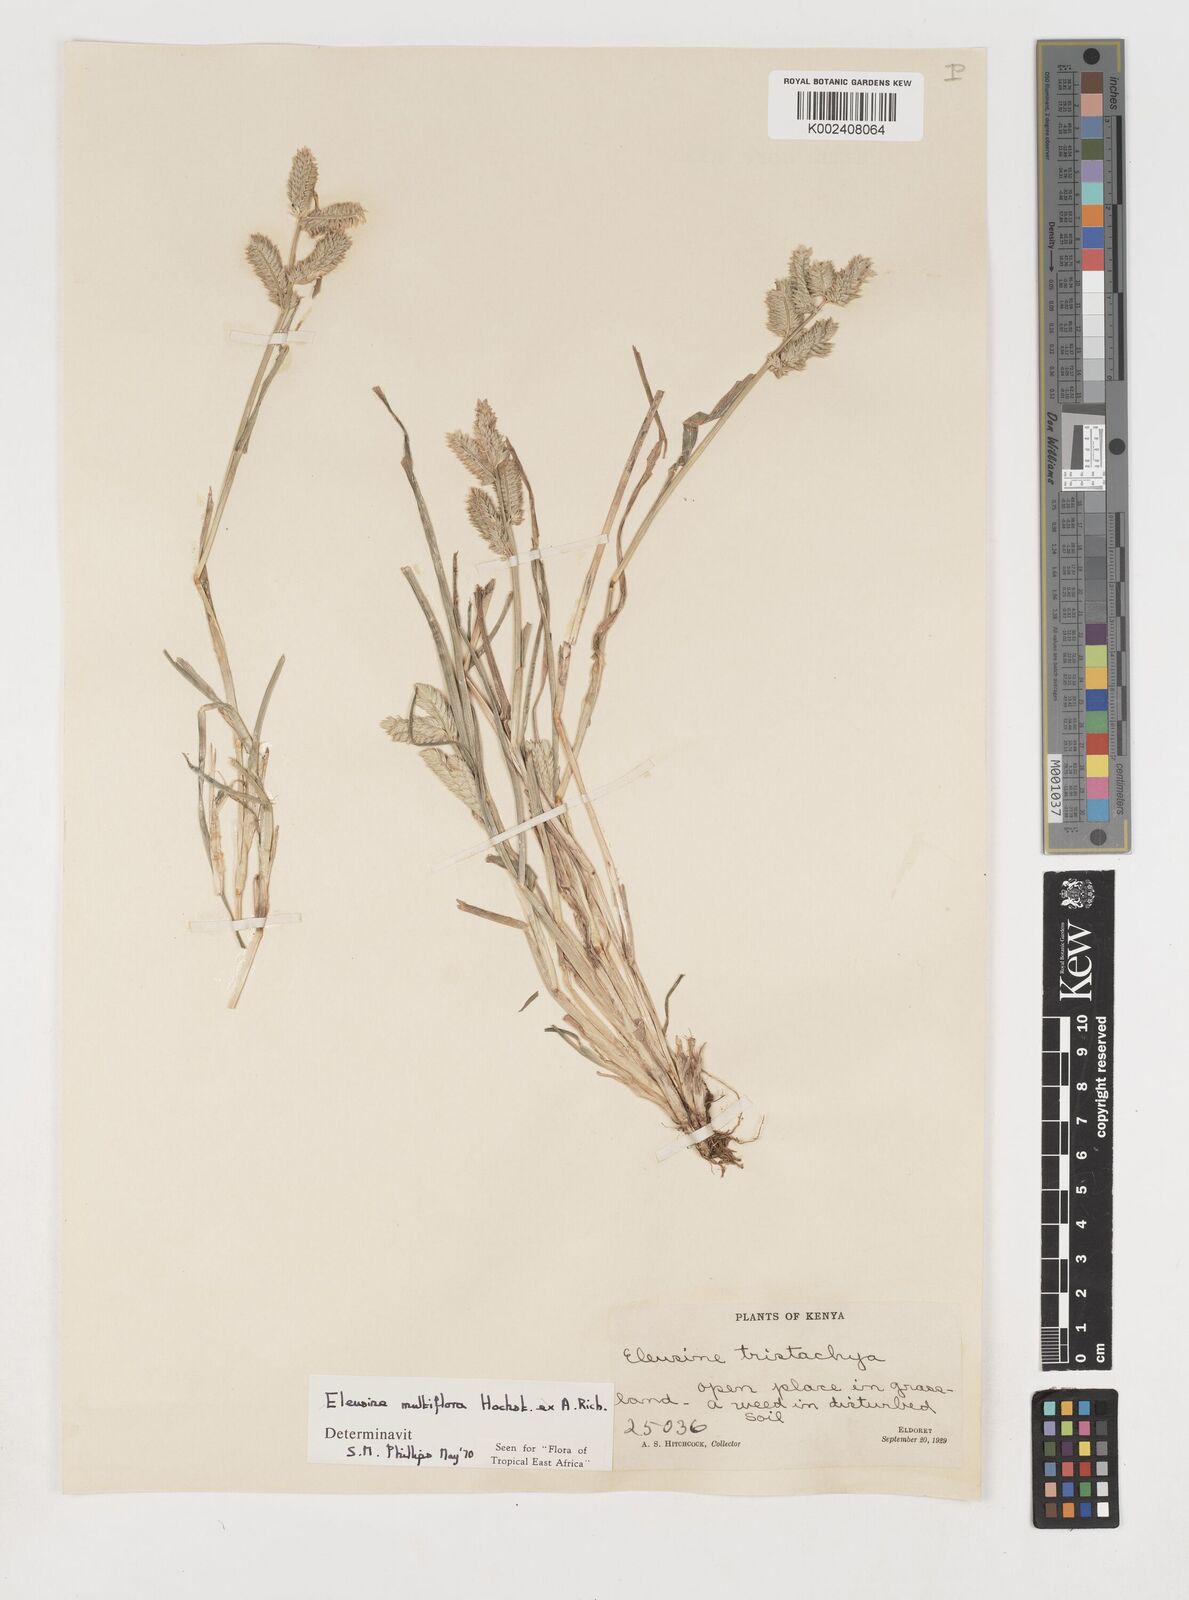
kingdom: Plantae
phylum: Tracheophyta
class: Liliopsida
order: Poales
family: Poaceae
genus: Eleusine
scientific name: Eleusine multiflora
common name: Fat-spiked yard-grass
